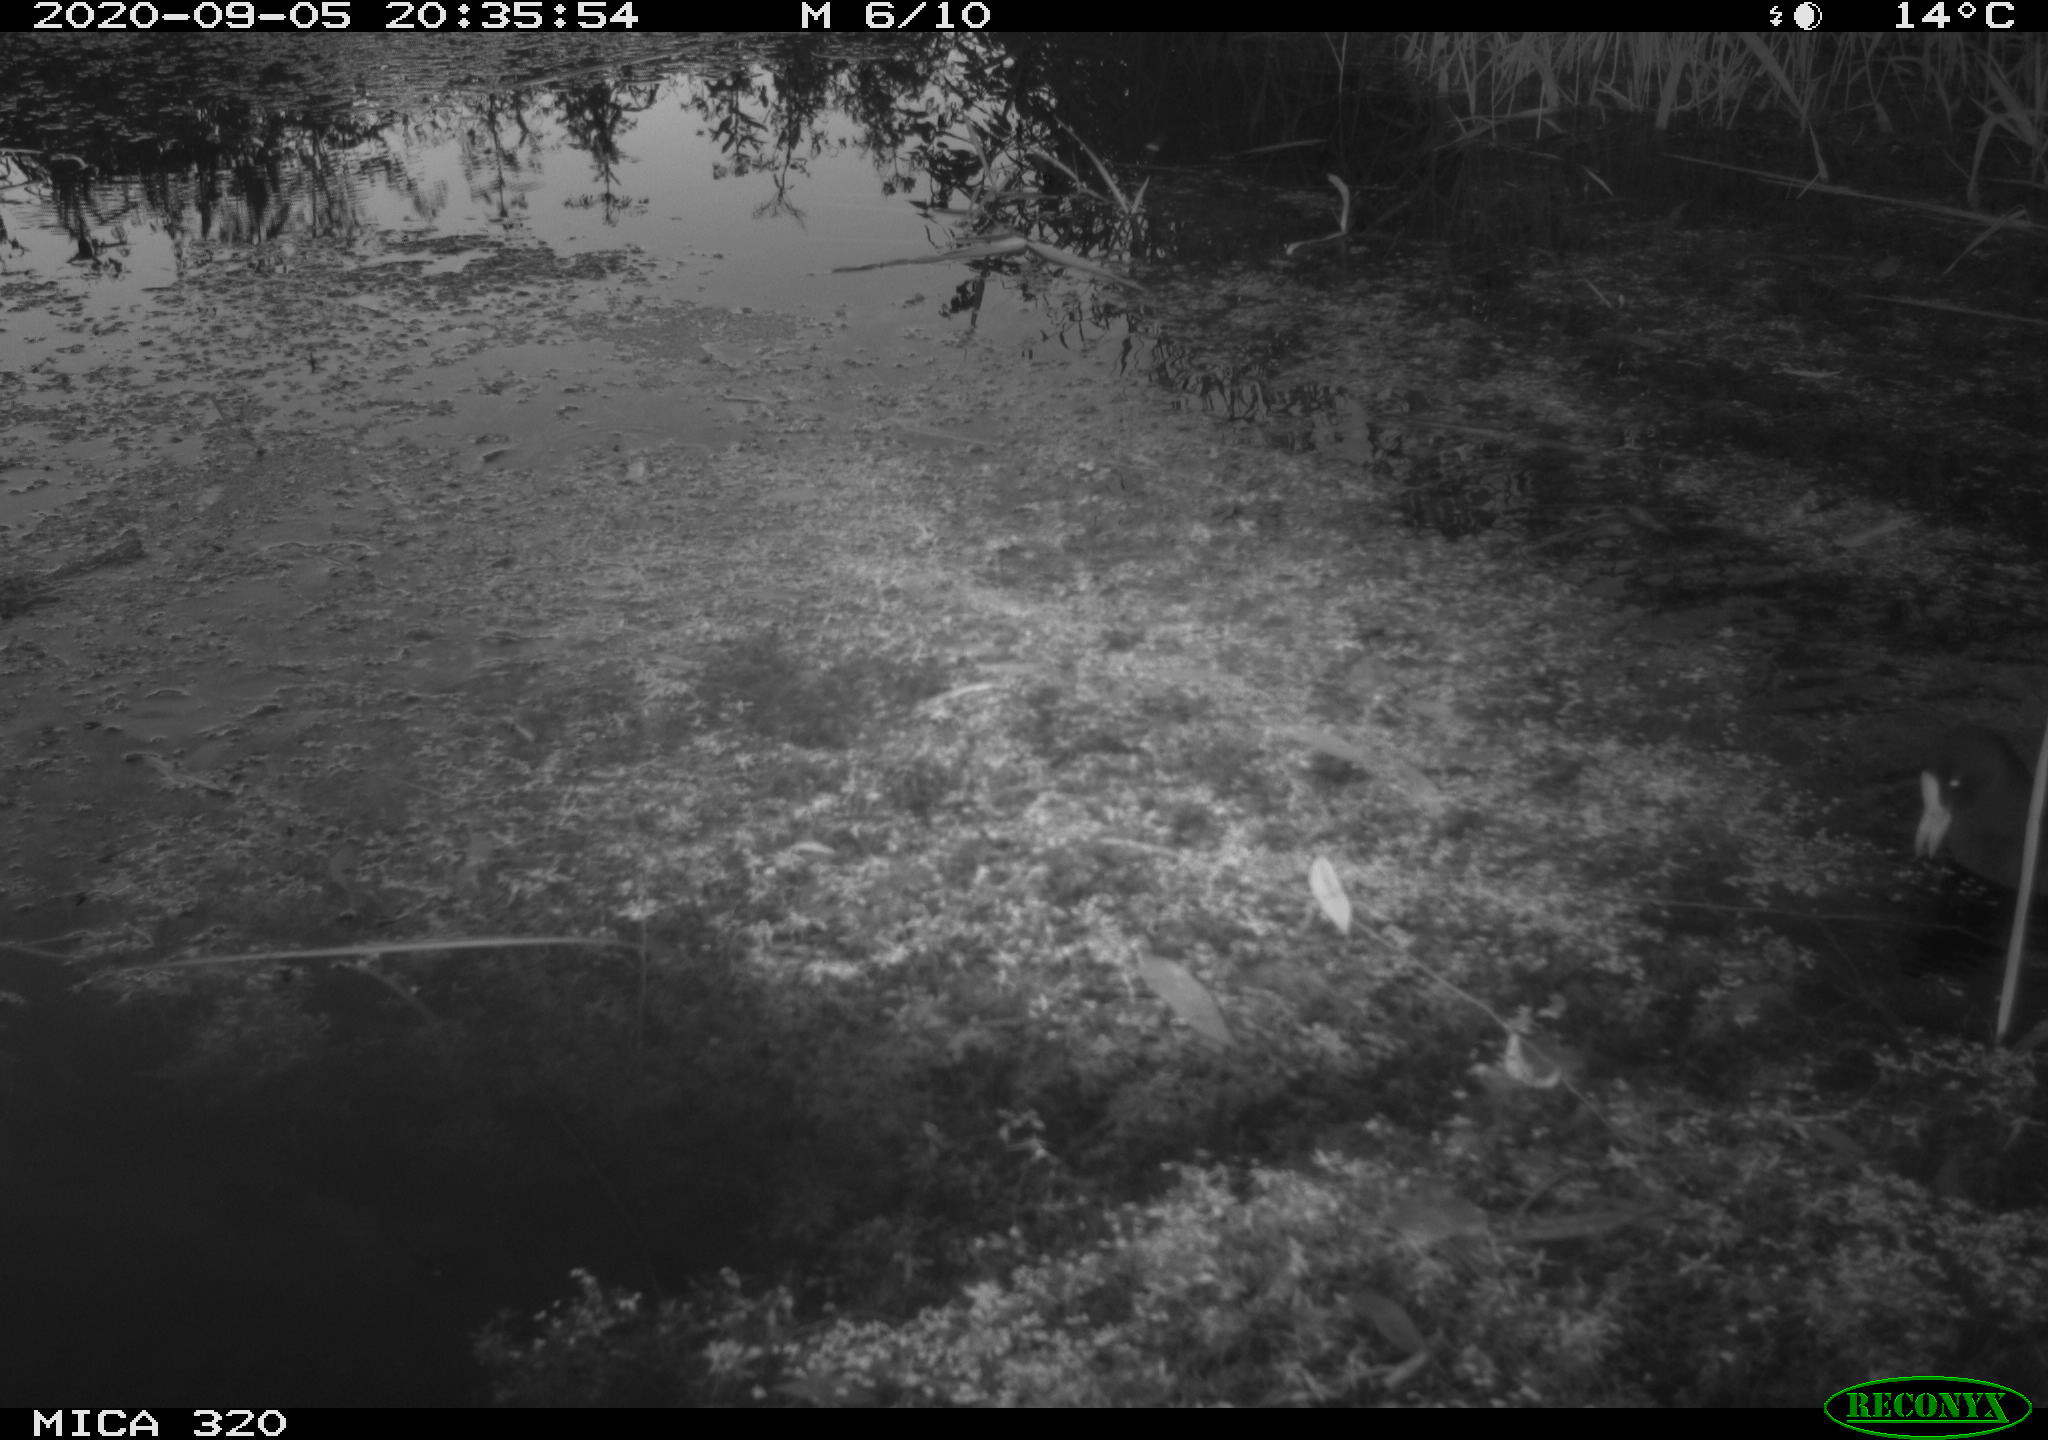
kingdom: Animalia
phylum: Chordata
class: Aves
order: Gruiformes
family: Rallidae
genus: Gallinula
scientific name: Gallinula chloropus
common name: Common moorhen
